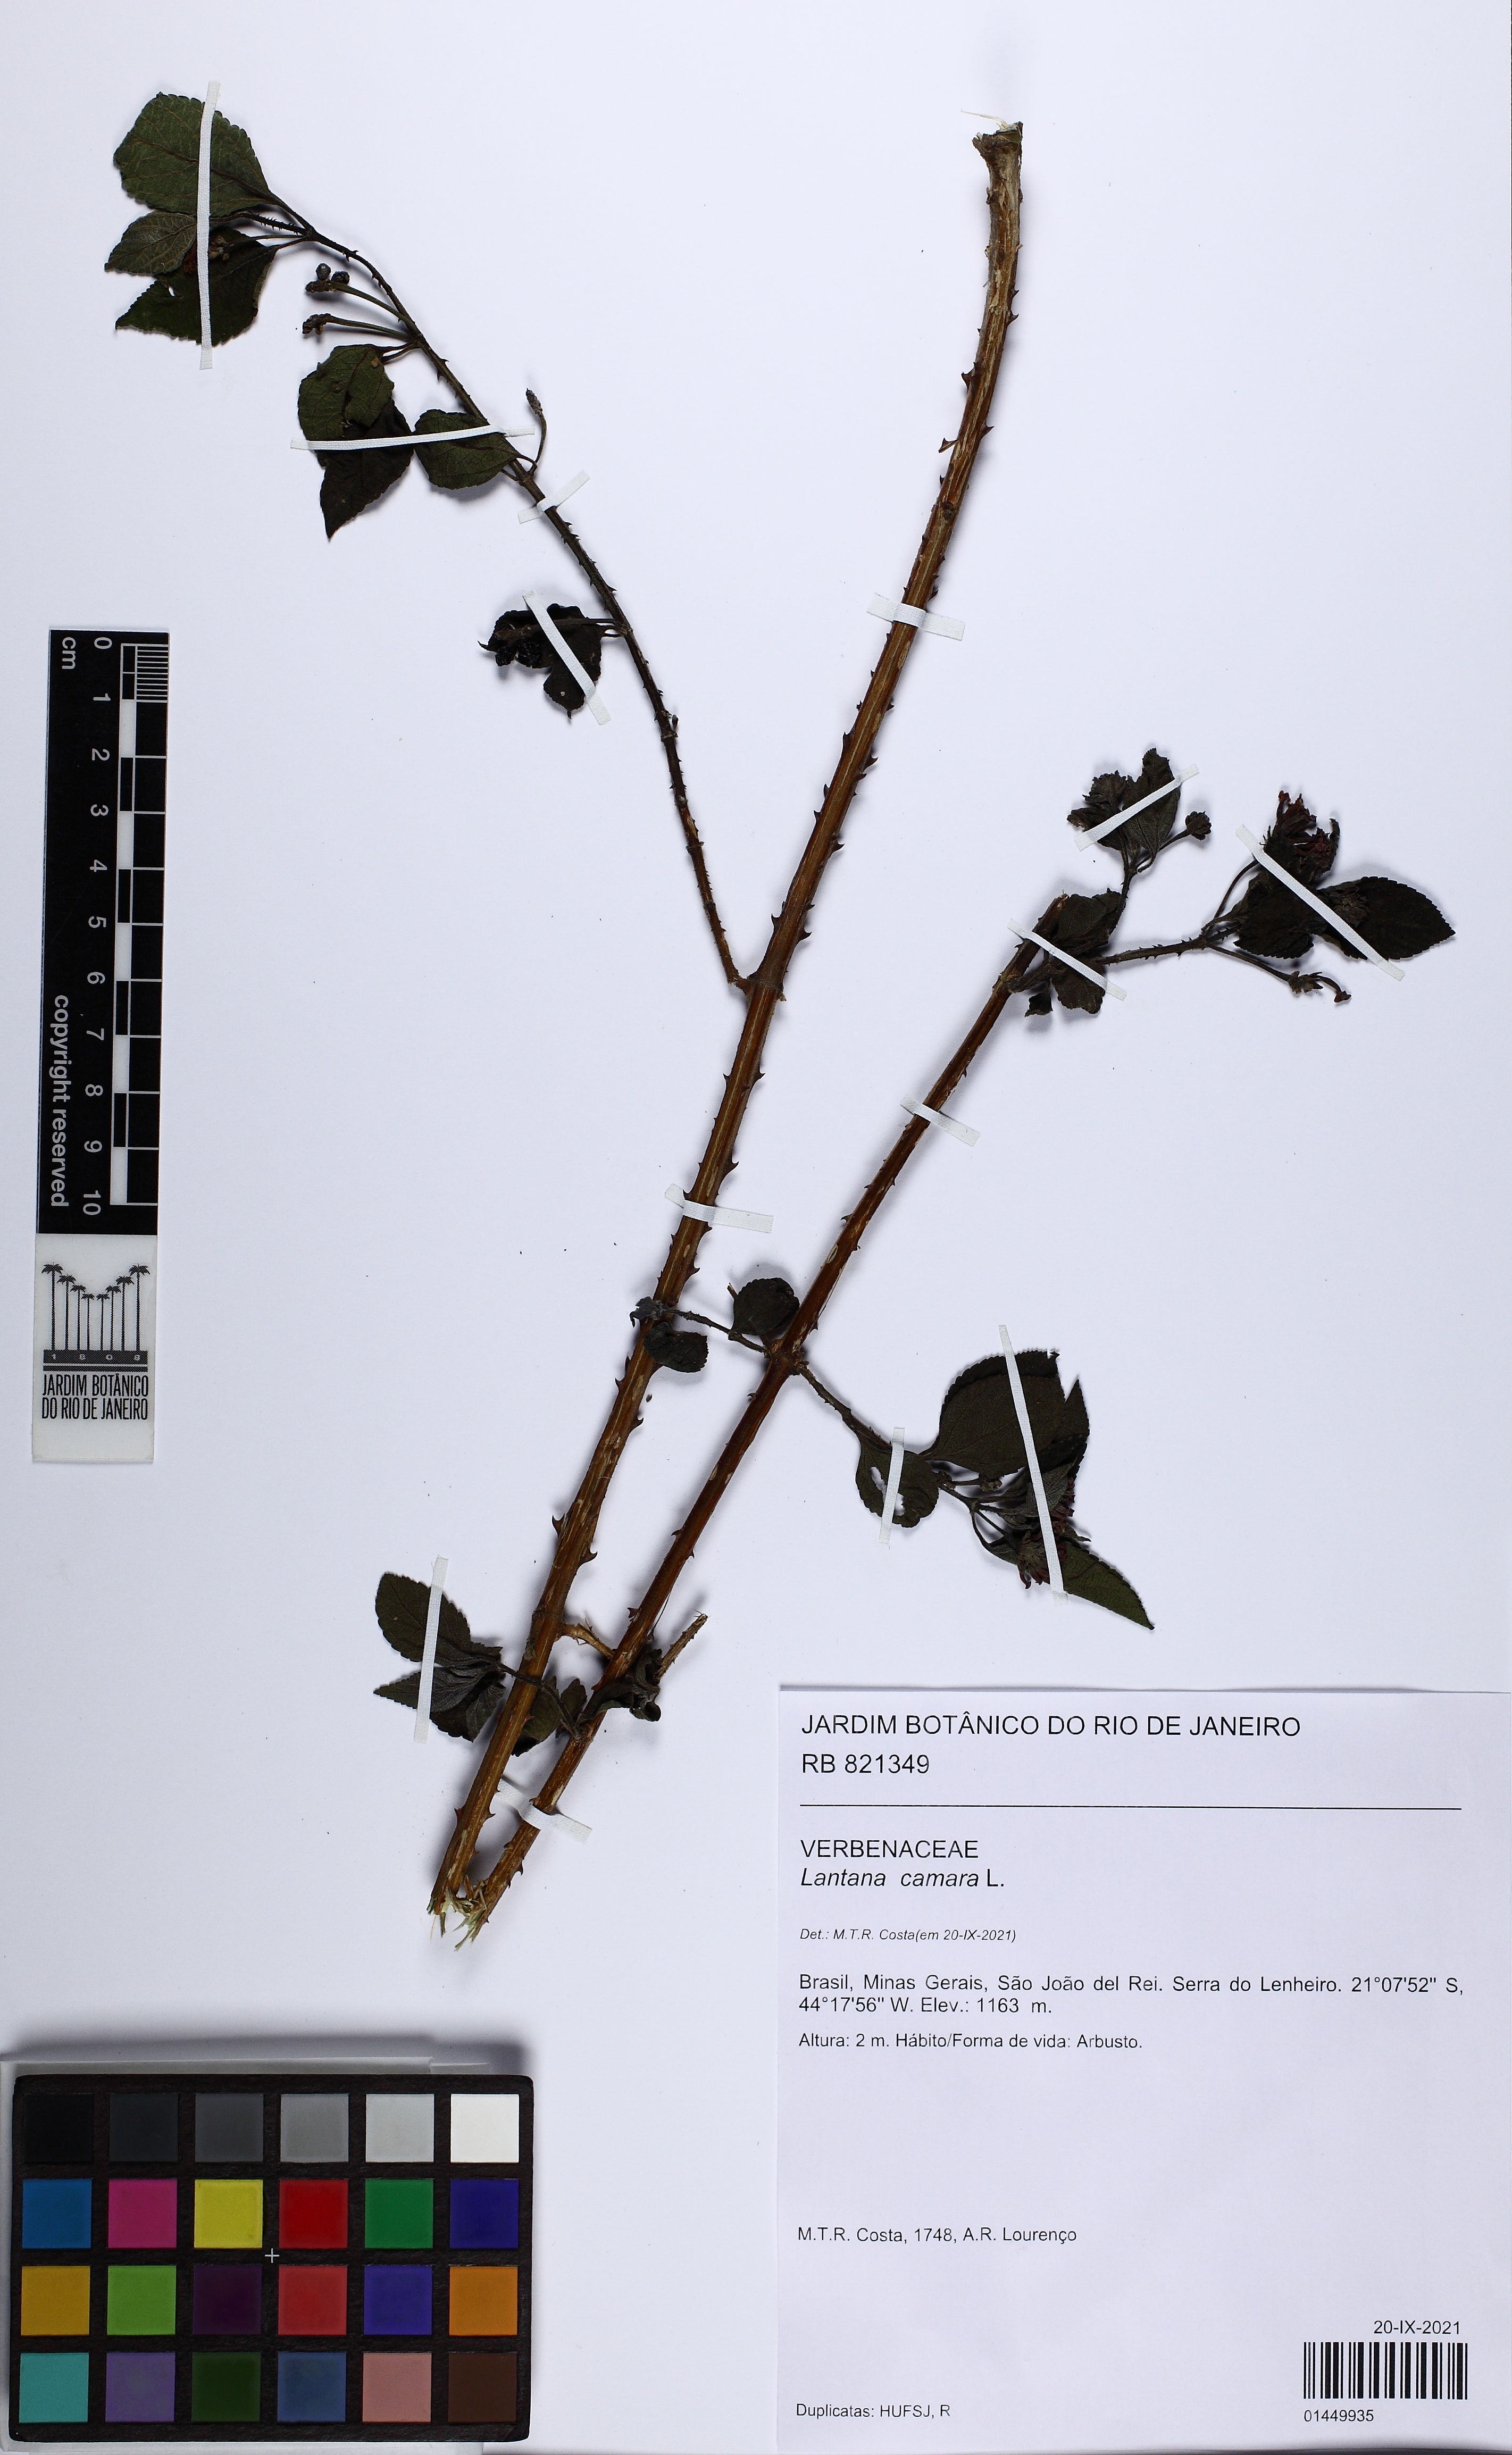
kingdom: Plantae
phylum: Tracheophyta
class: Magnoliopsida
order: Lamiales
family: Verbenaceae
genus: Lantana
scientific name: Lantana camara
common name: Lantana
